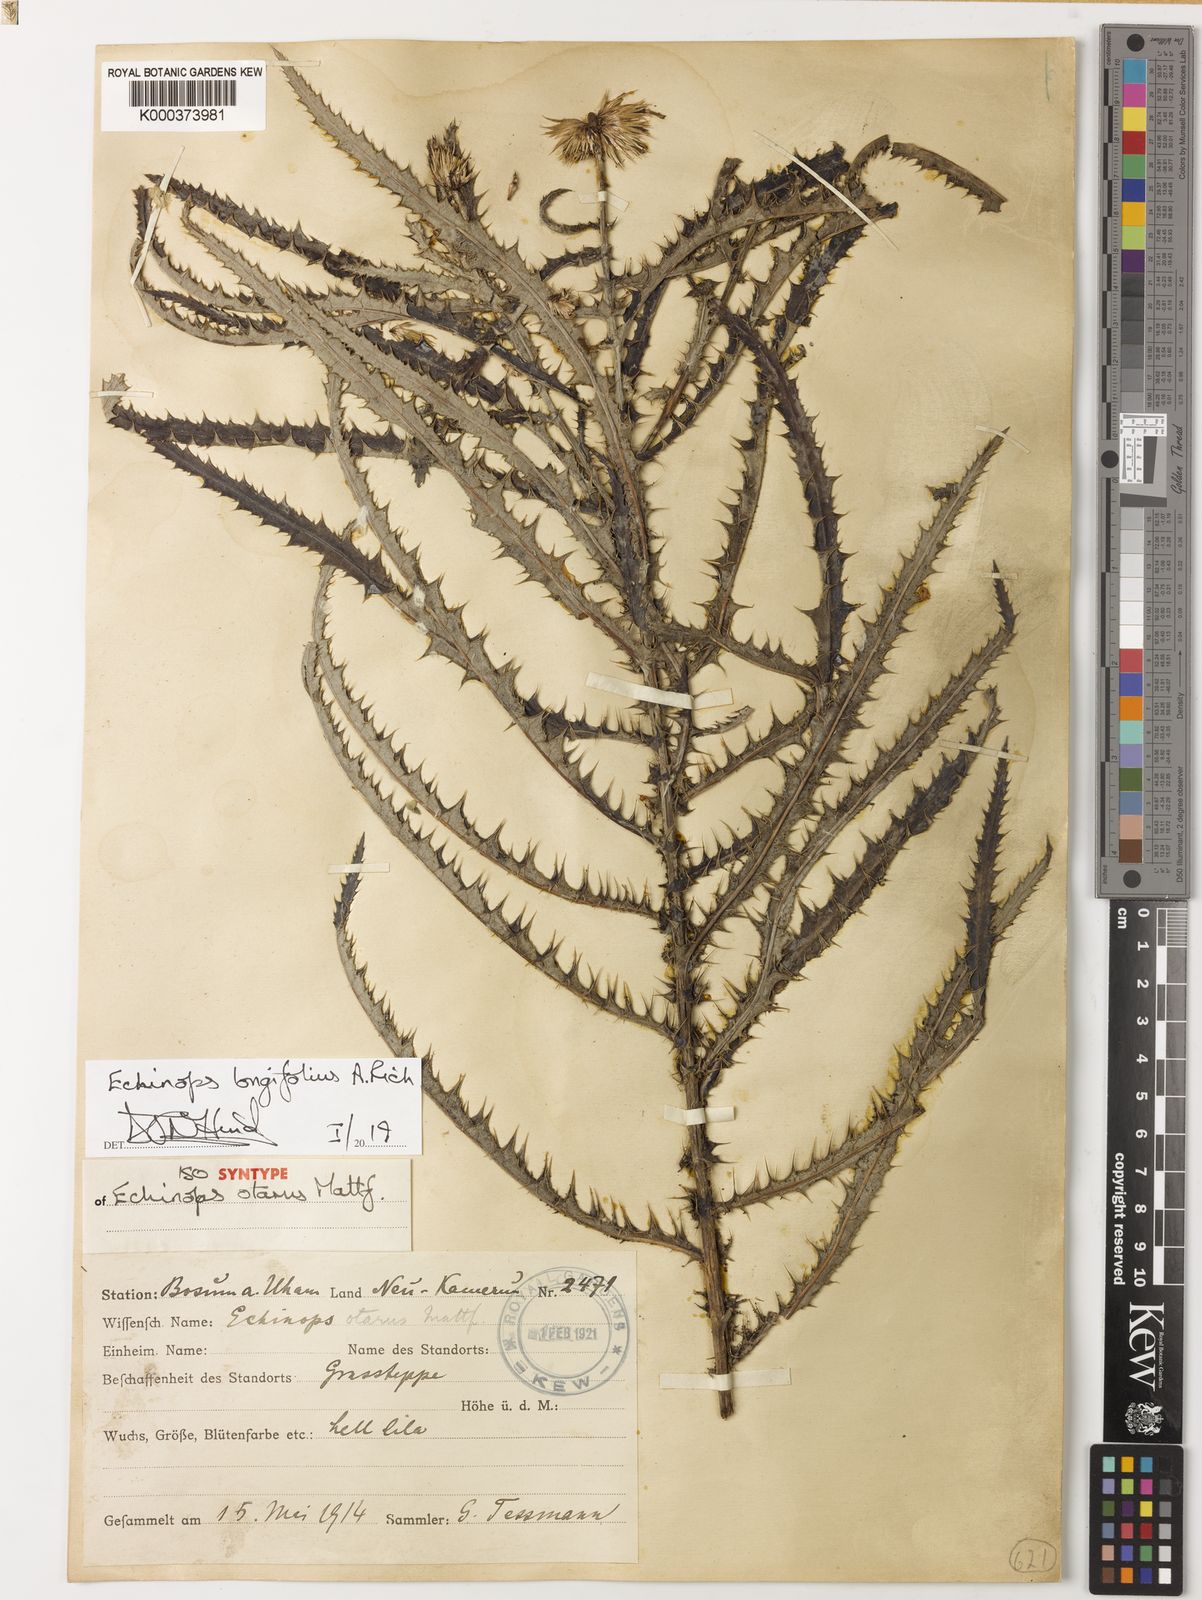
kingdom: Plantae
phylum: Tracheophyta
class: Magnoliopsida
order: Asterales
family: Asteraceae
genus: Echinops
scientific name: Echinops longifolius
